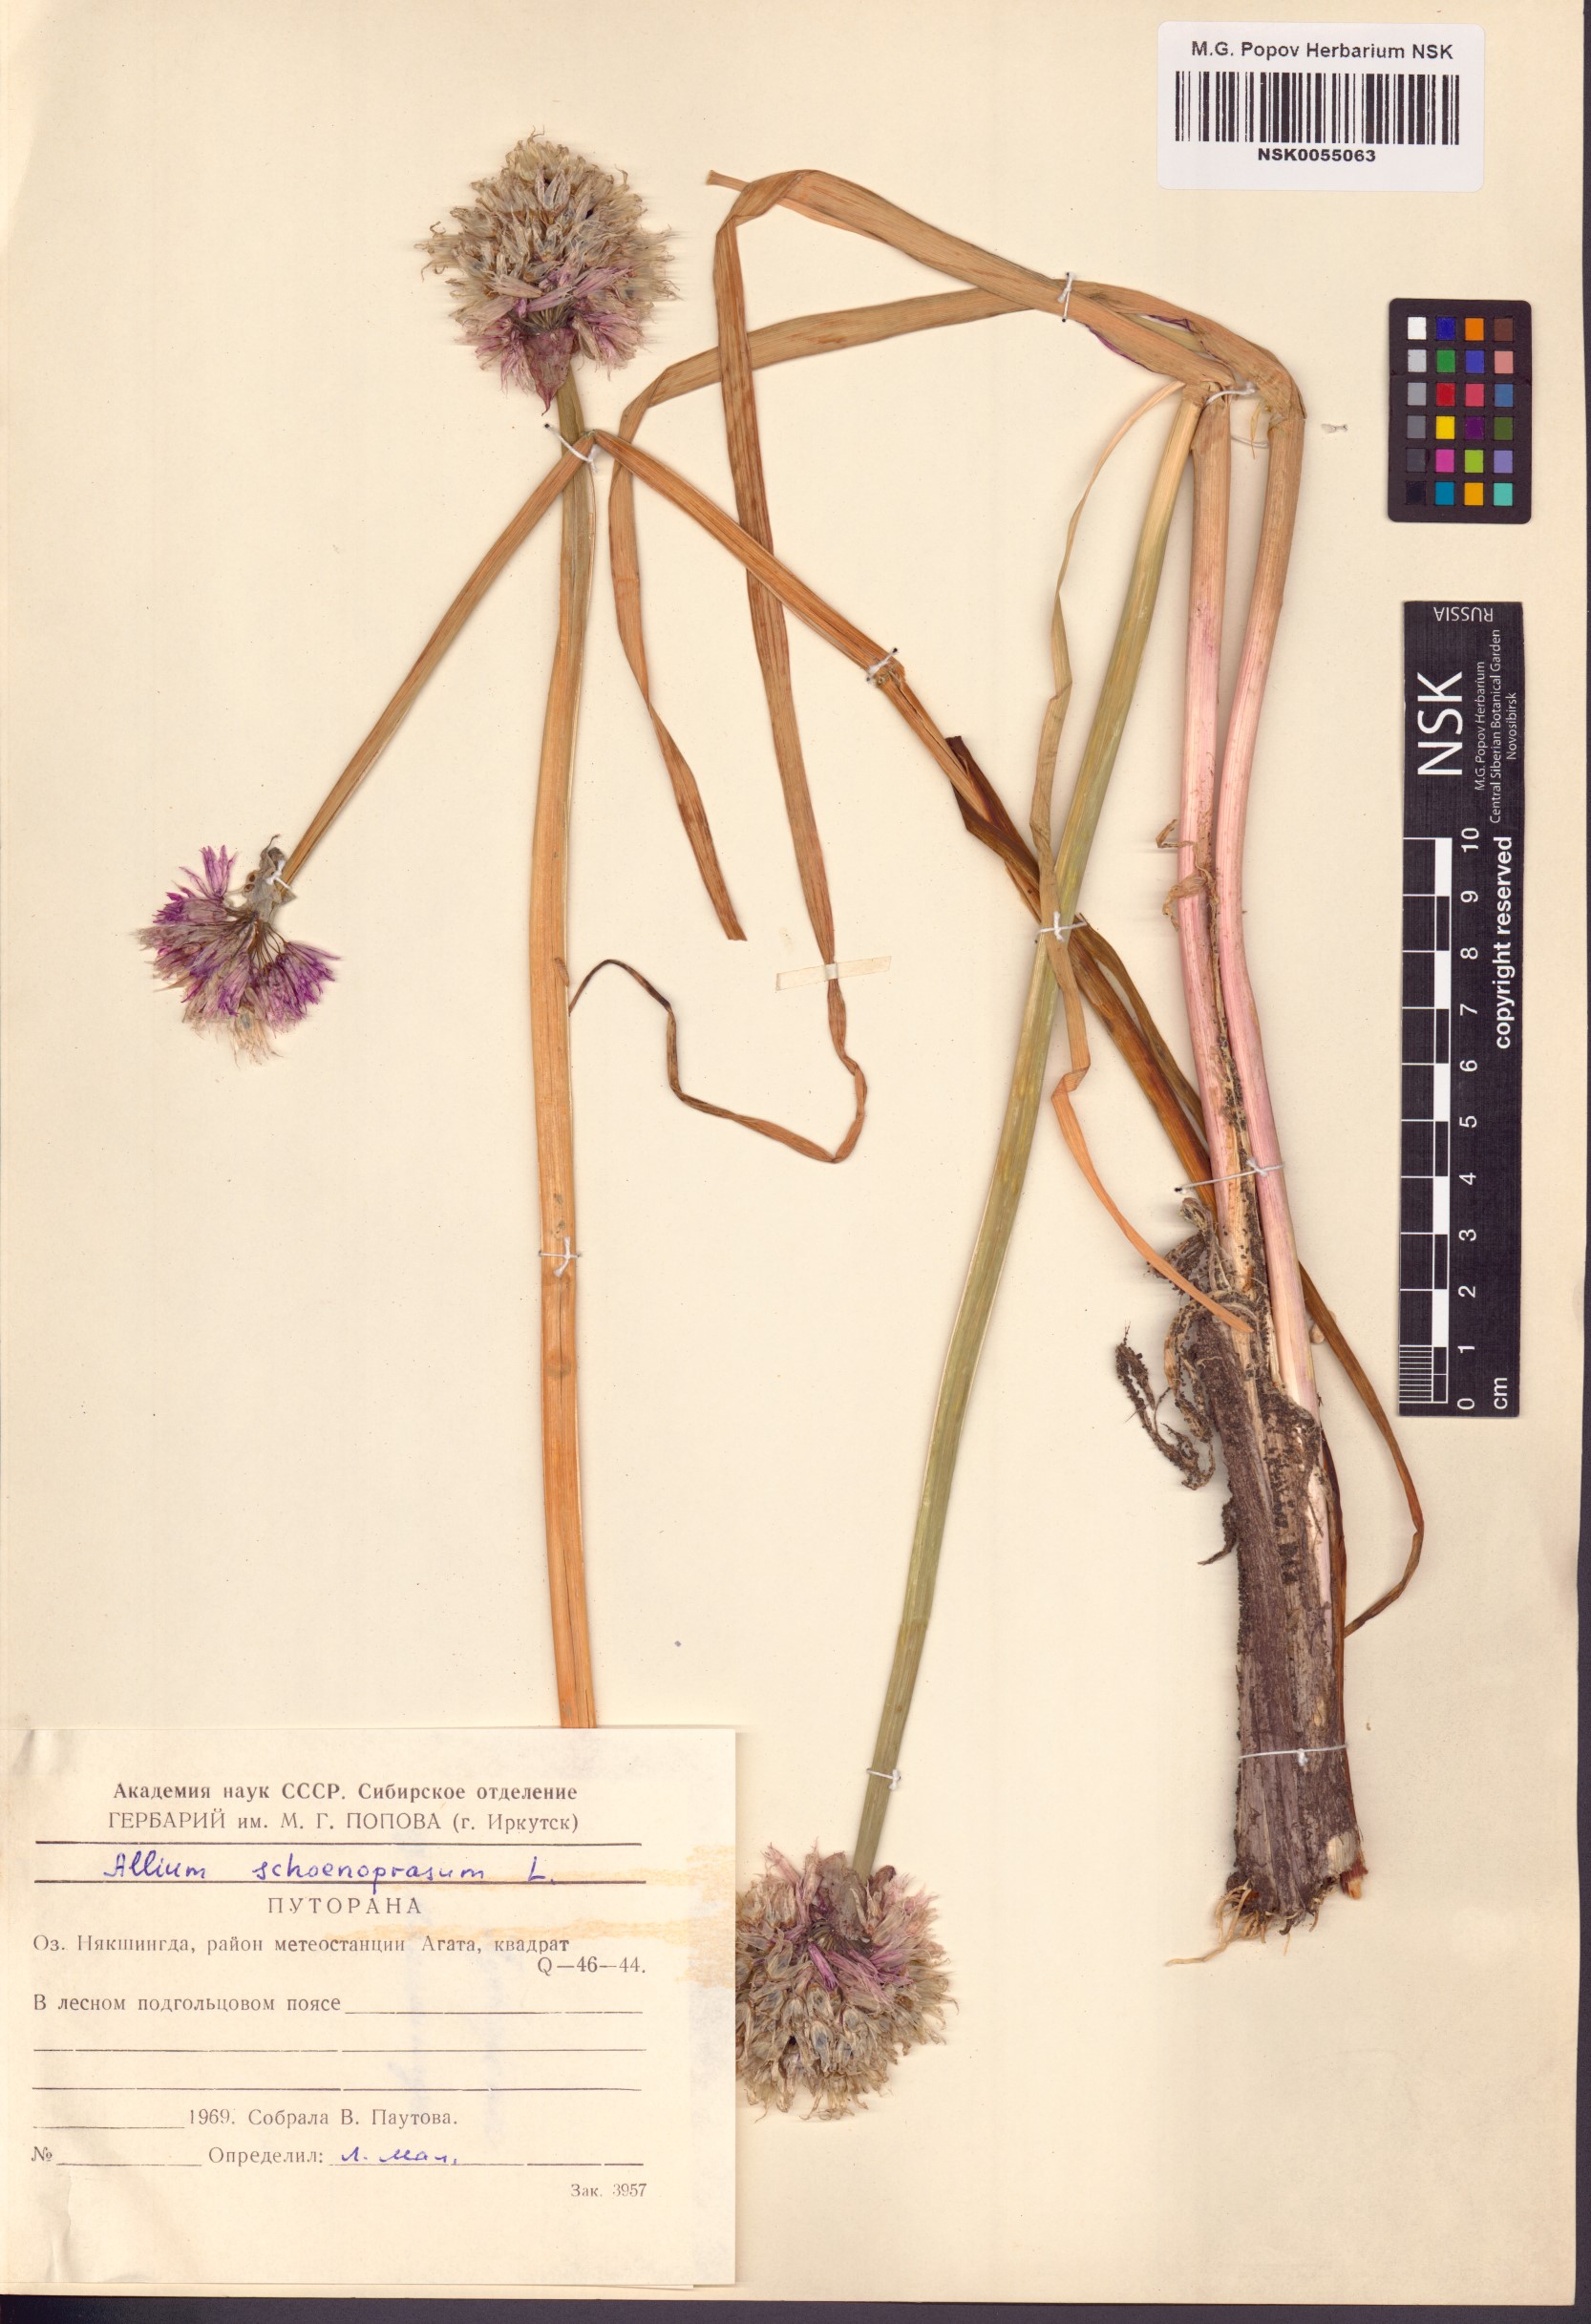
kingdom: Plantae
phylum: Tracheophyta
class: Liliopsida
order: Asparagales
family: Amaryllidaceae
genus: Allium
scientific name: Allium schoenoprasum
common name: Chives
